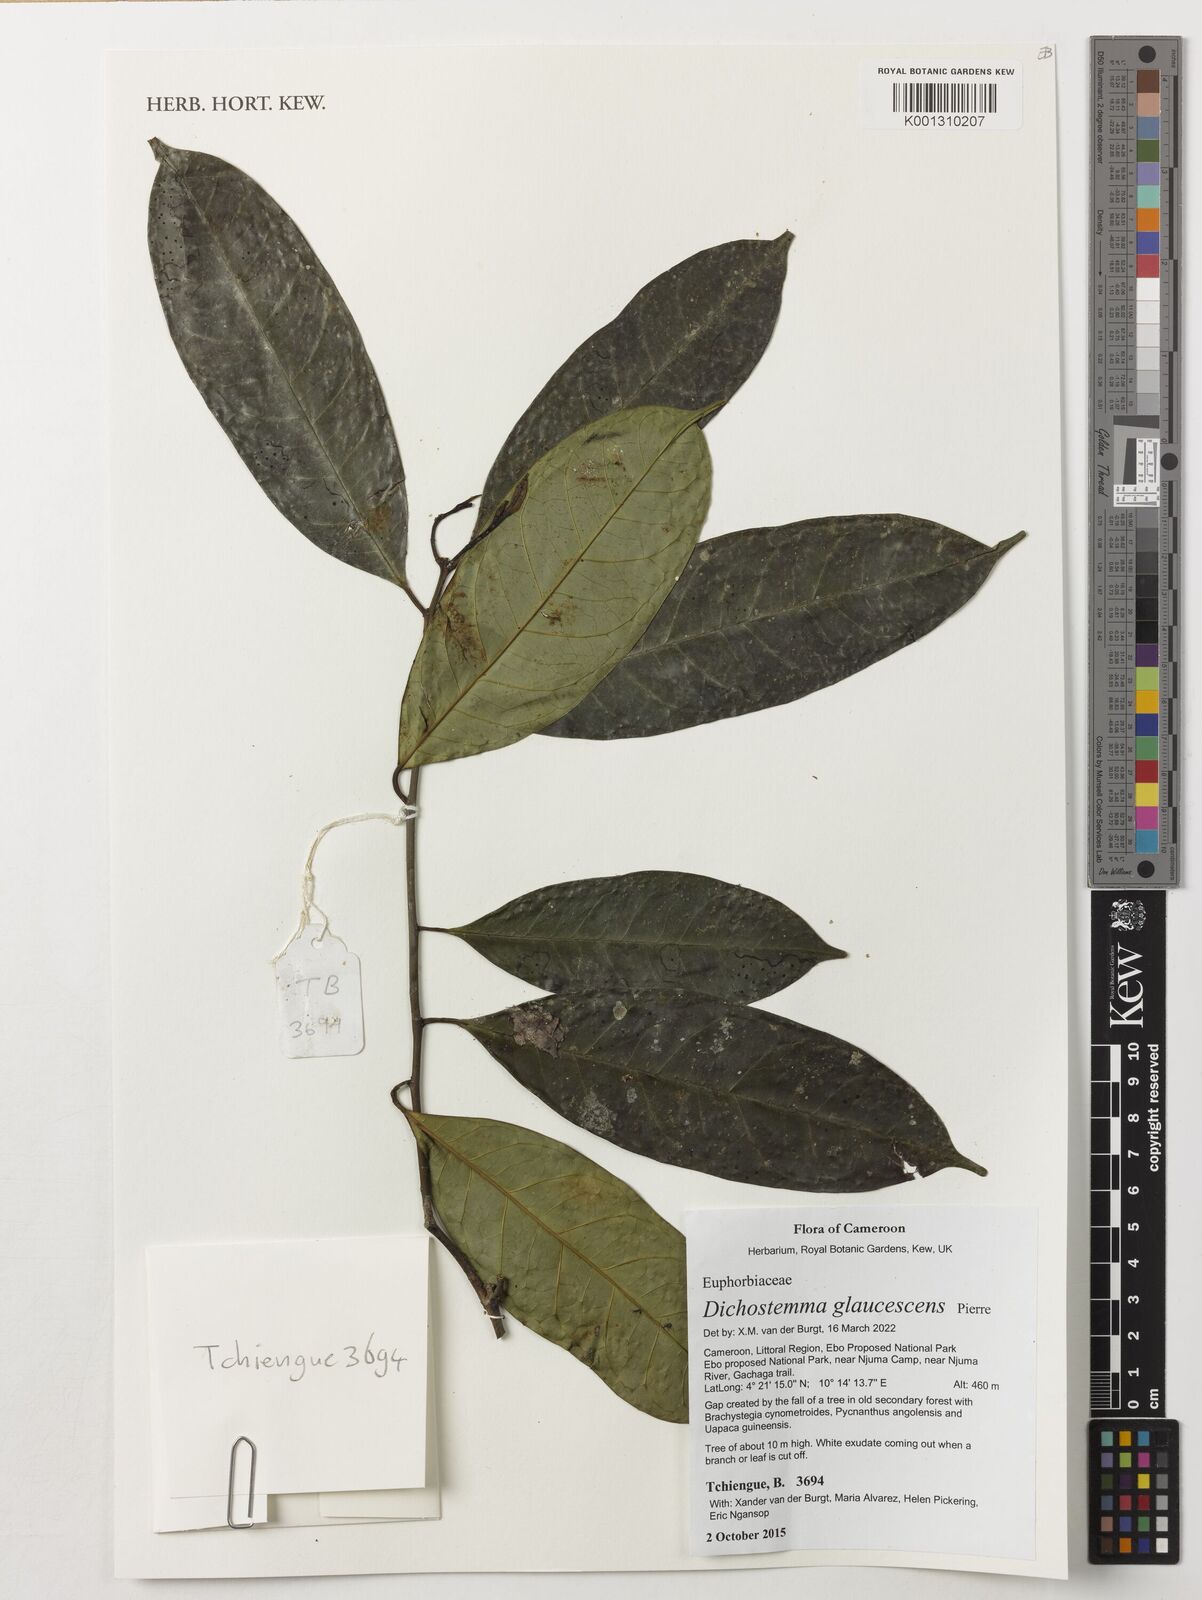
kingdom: Plantae
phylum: Tracheophyta
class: Magnoliopsida
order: Malpighiales
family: Euphorbiaceae
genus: Dichostemma
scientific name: Dichostemma glaucescens
